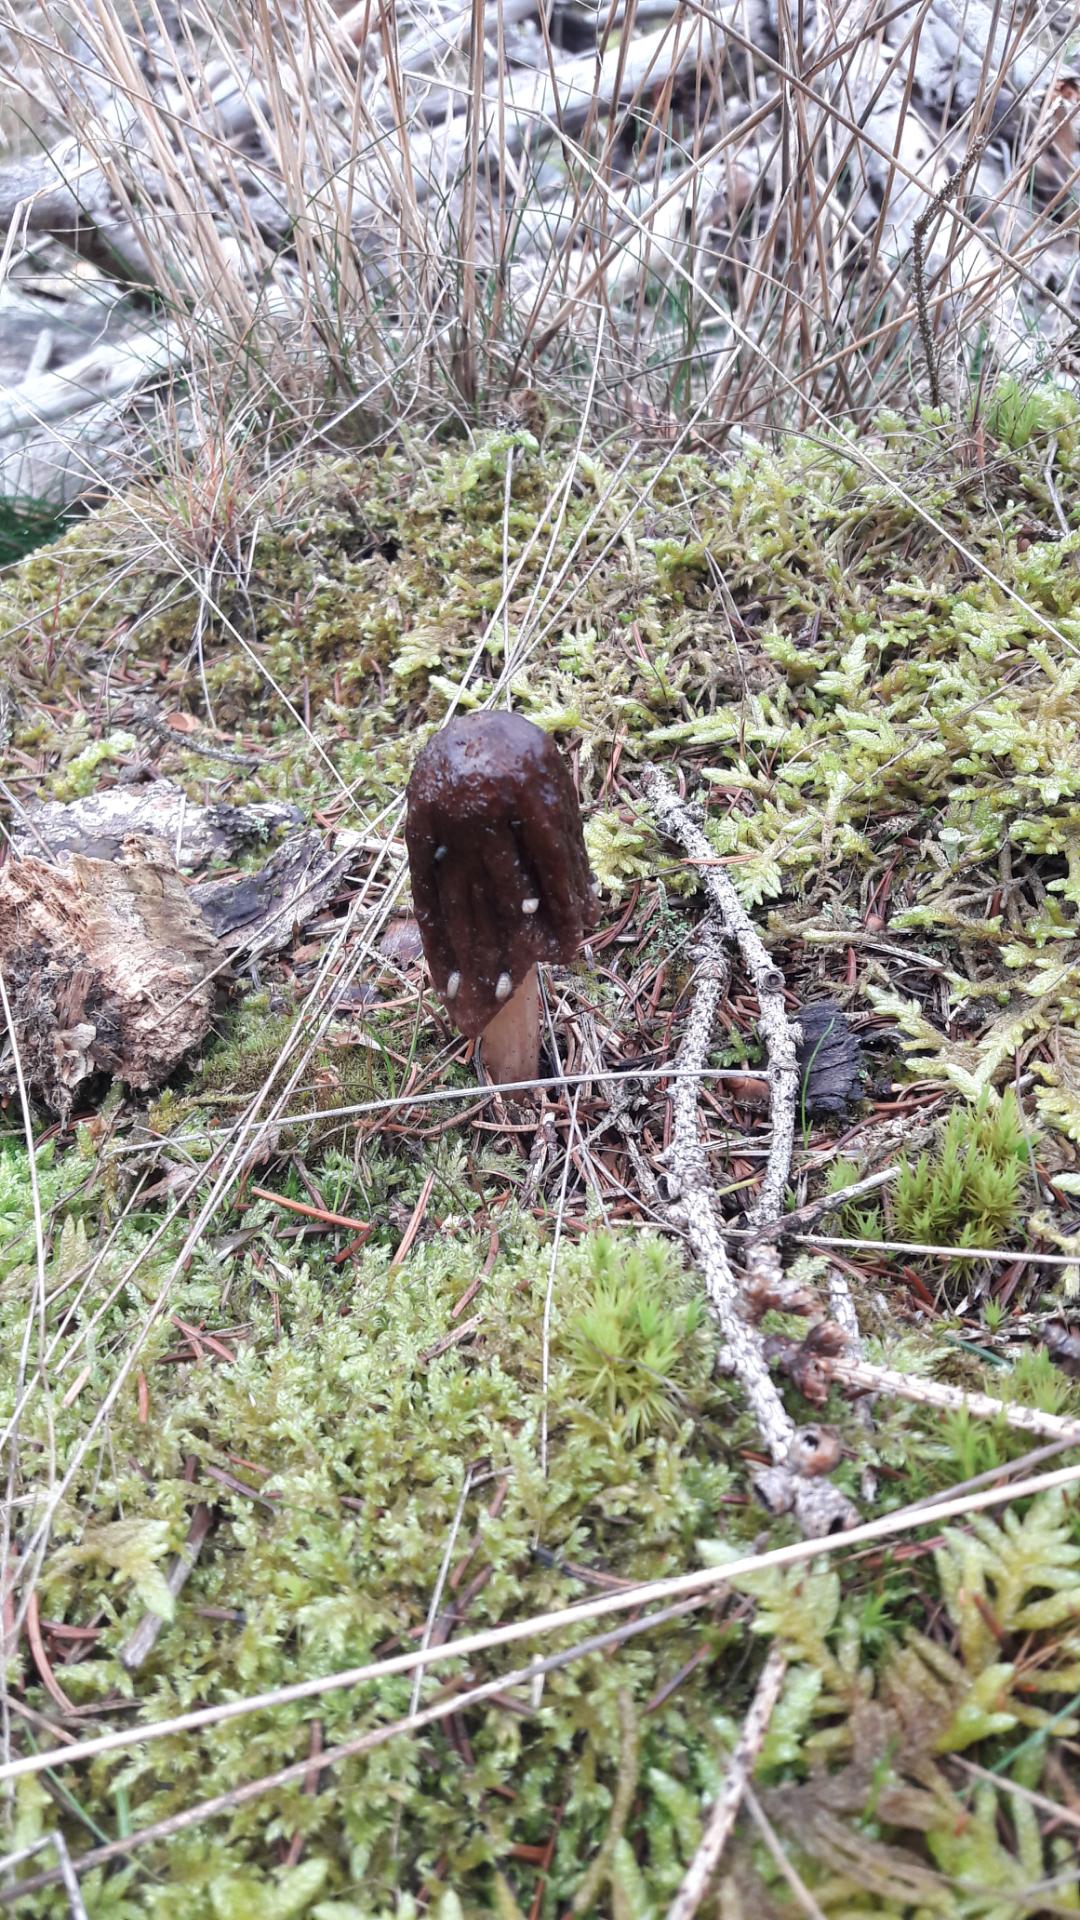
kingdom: Fungi
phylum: Basidiomycota
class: Agaricomycetes
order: Agaricales
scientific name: Agaricales
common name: champignonordenen
